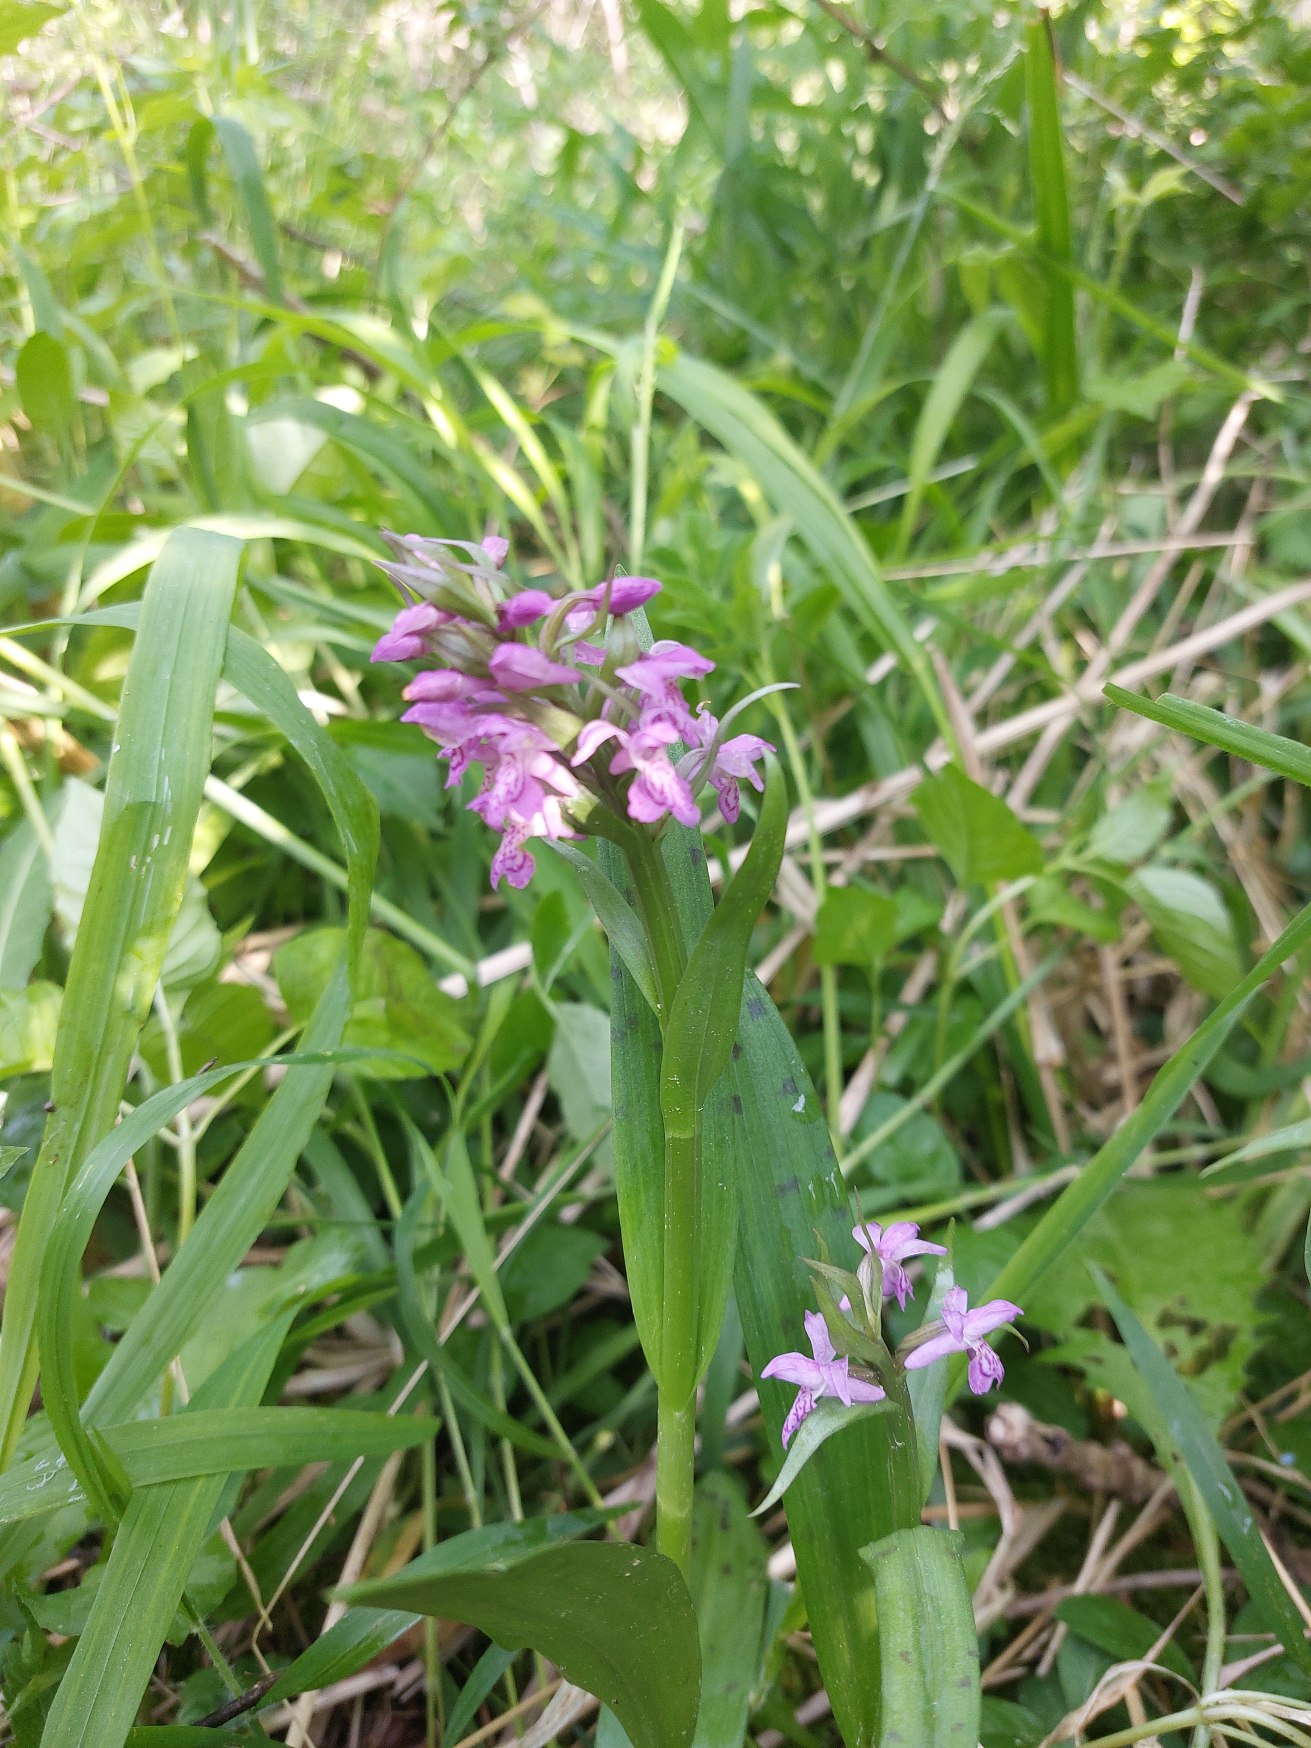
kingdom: Plantae
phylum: Tracheophyta
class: Liliopsida
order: Asparagales
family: Orchidaceae
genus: Dactylorhiza
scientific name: Dactylorhiza majalis
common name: Maj-gøgeurt
